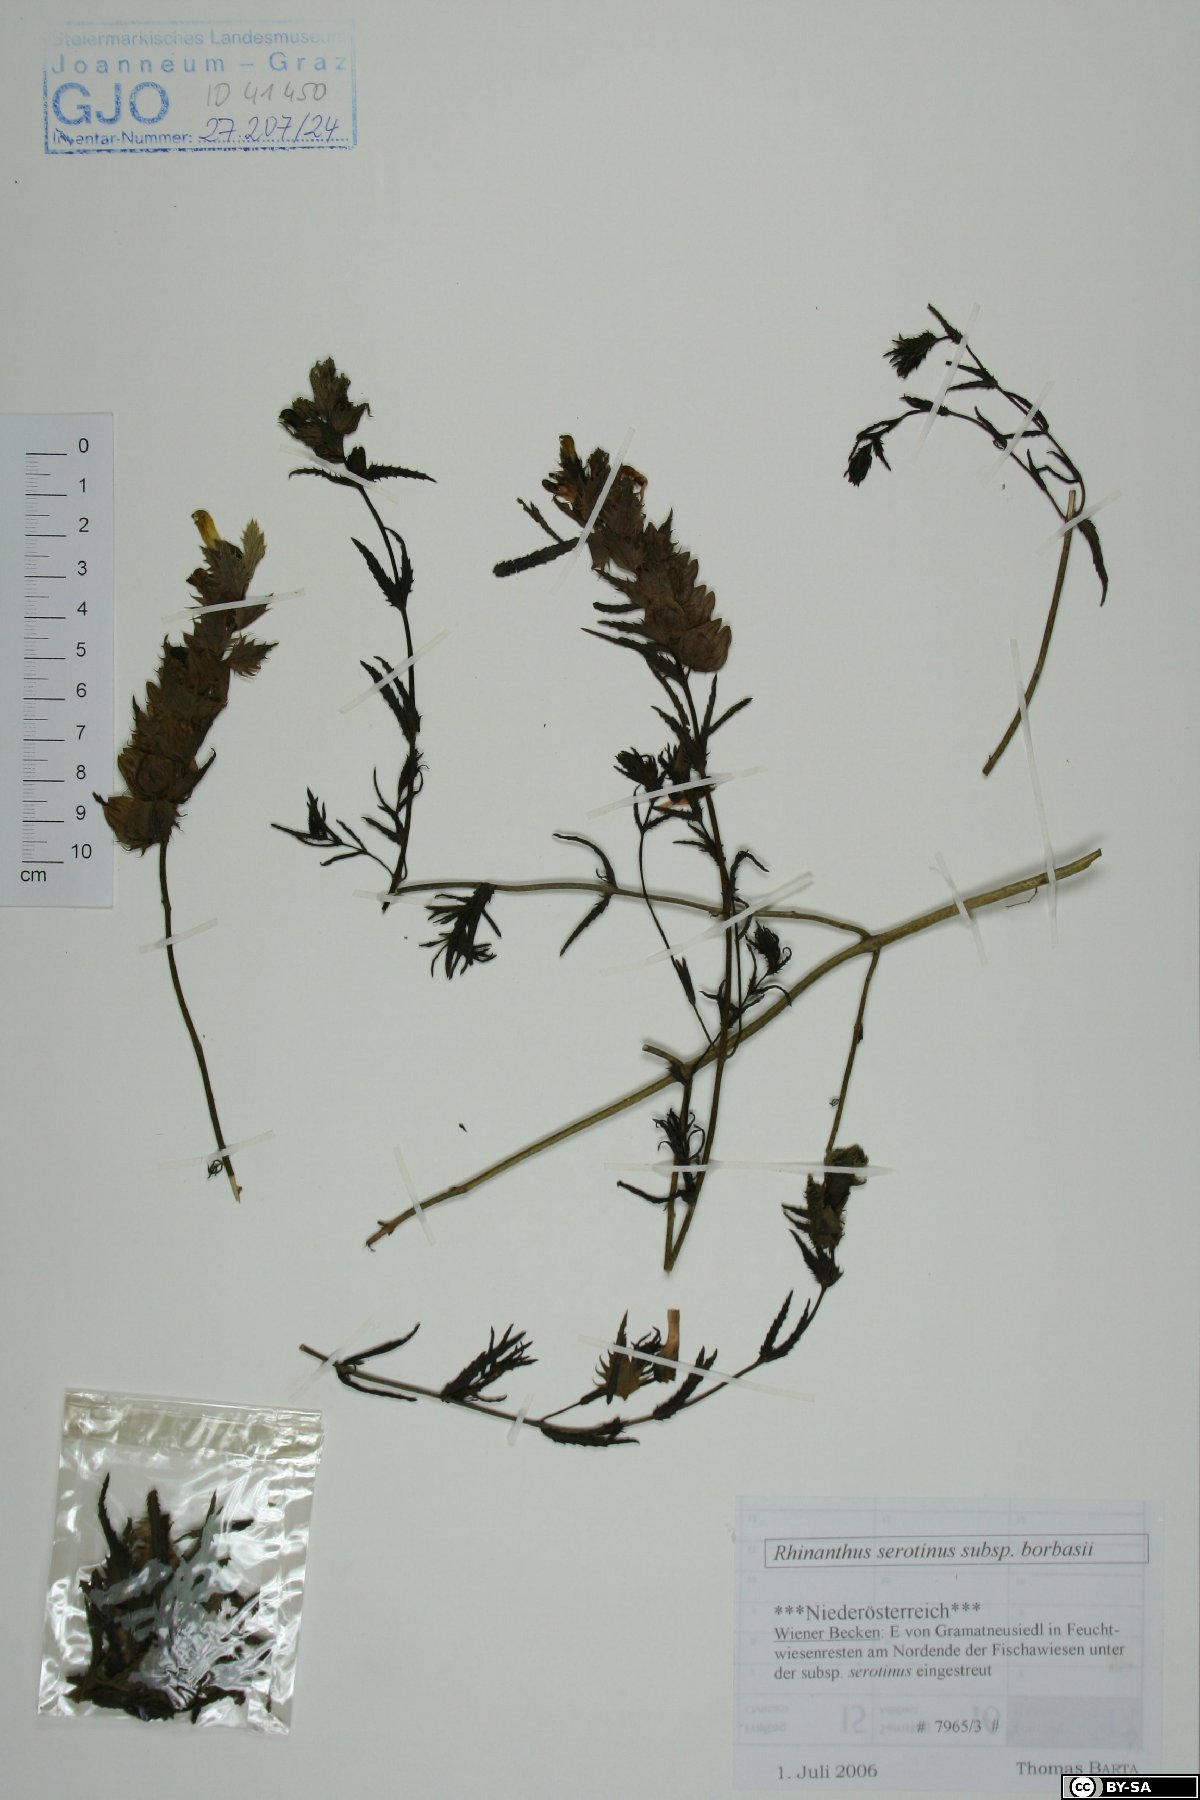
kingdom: Plantae
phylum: Tracheophyta
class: Magnoliopsida
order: Lamiales
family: Orobanchaceae
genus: Rhinanthus
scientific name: Rhinanthus serotinus
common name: Late-flowering yellow rattle
